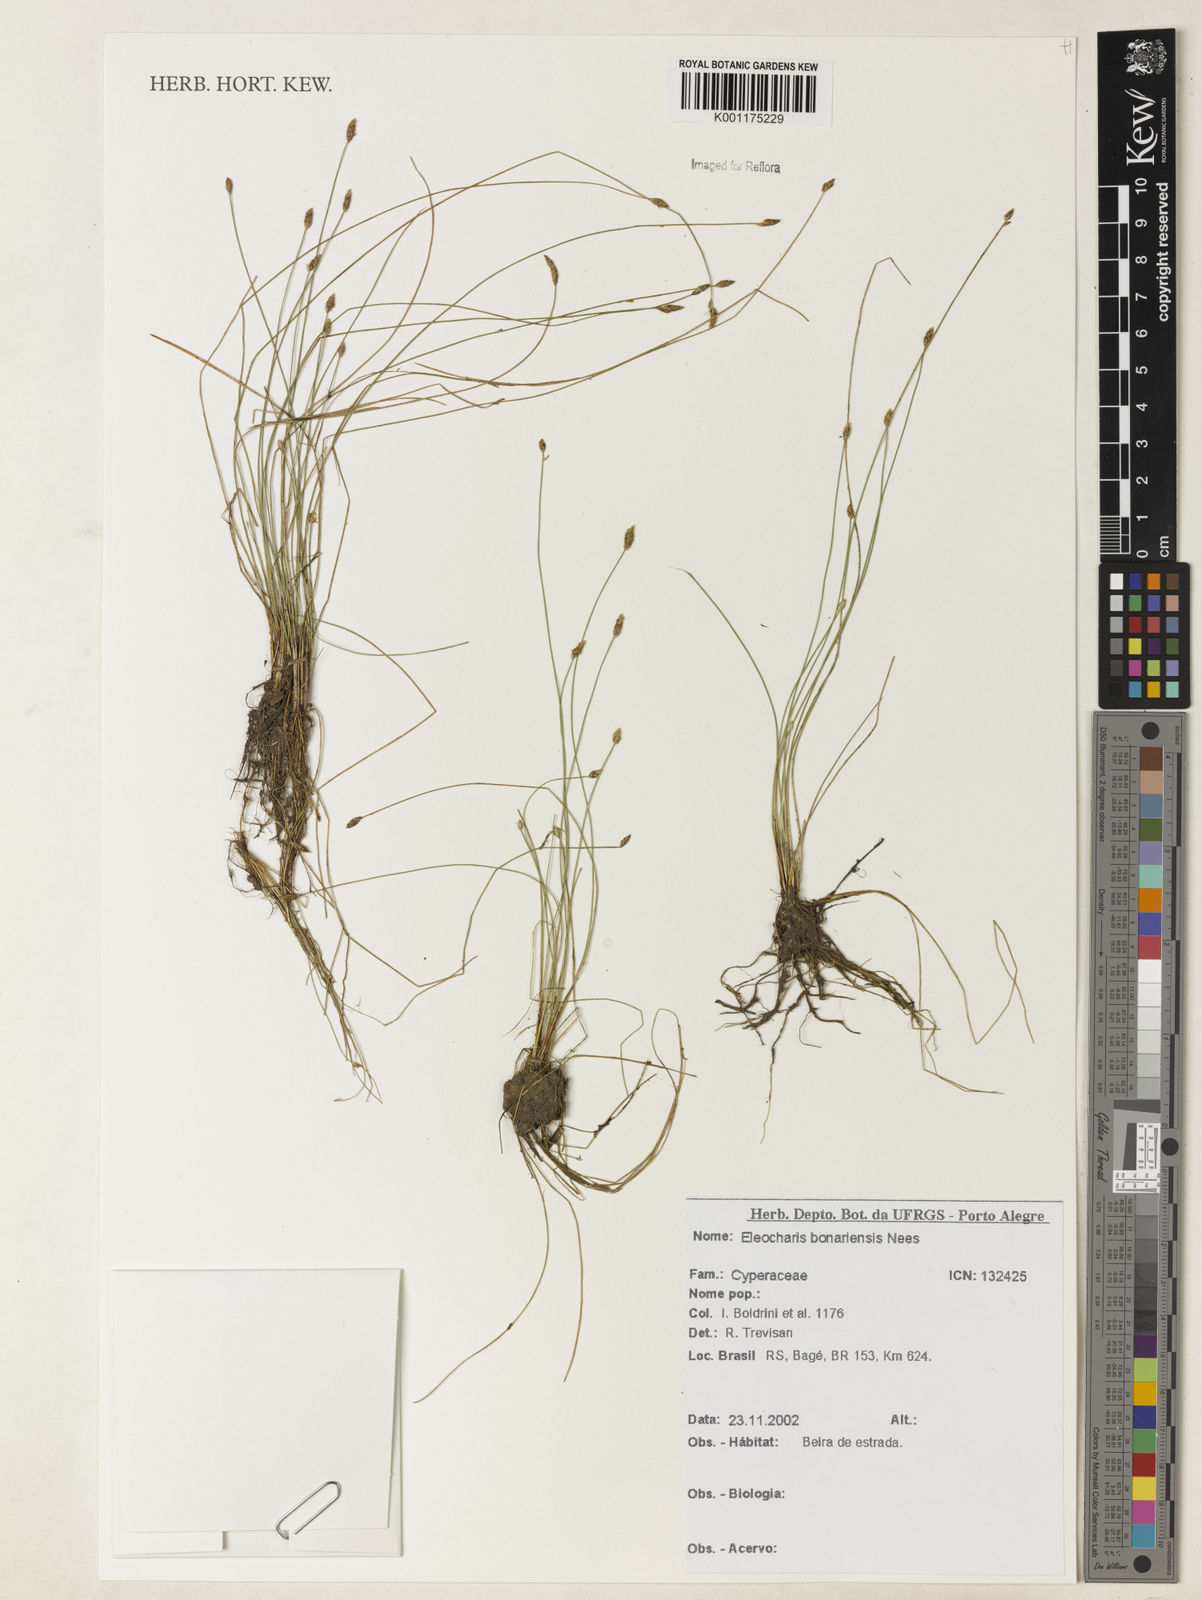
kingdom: Plantae
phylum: Tracheophyta
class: Liliopsida
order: Poales
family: Cyperaceae
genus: Eleocharis
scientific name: Eleocharis bonariensis
